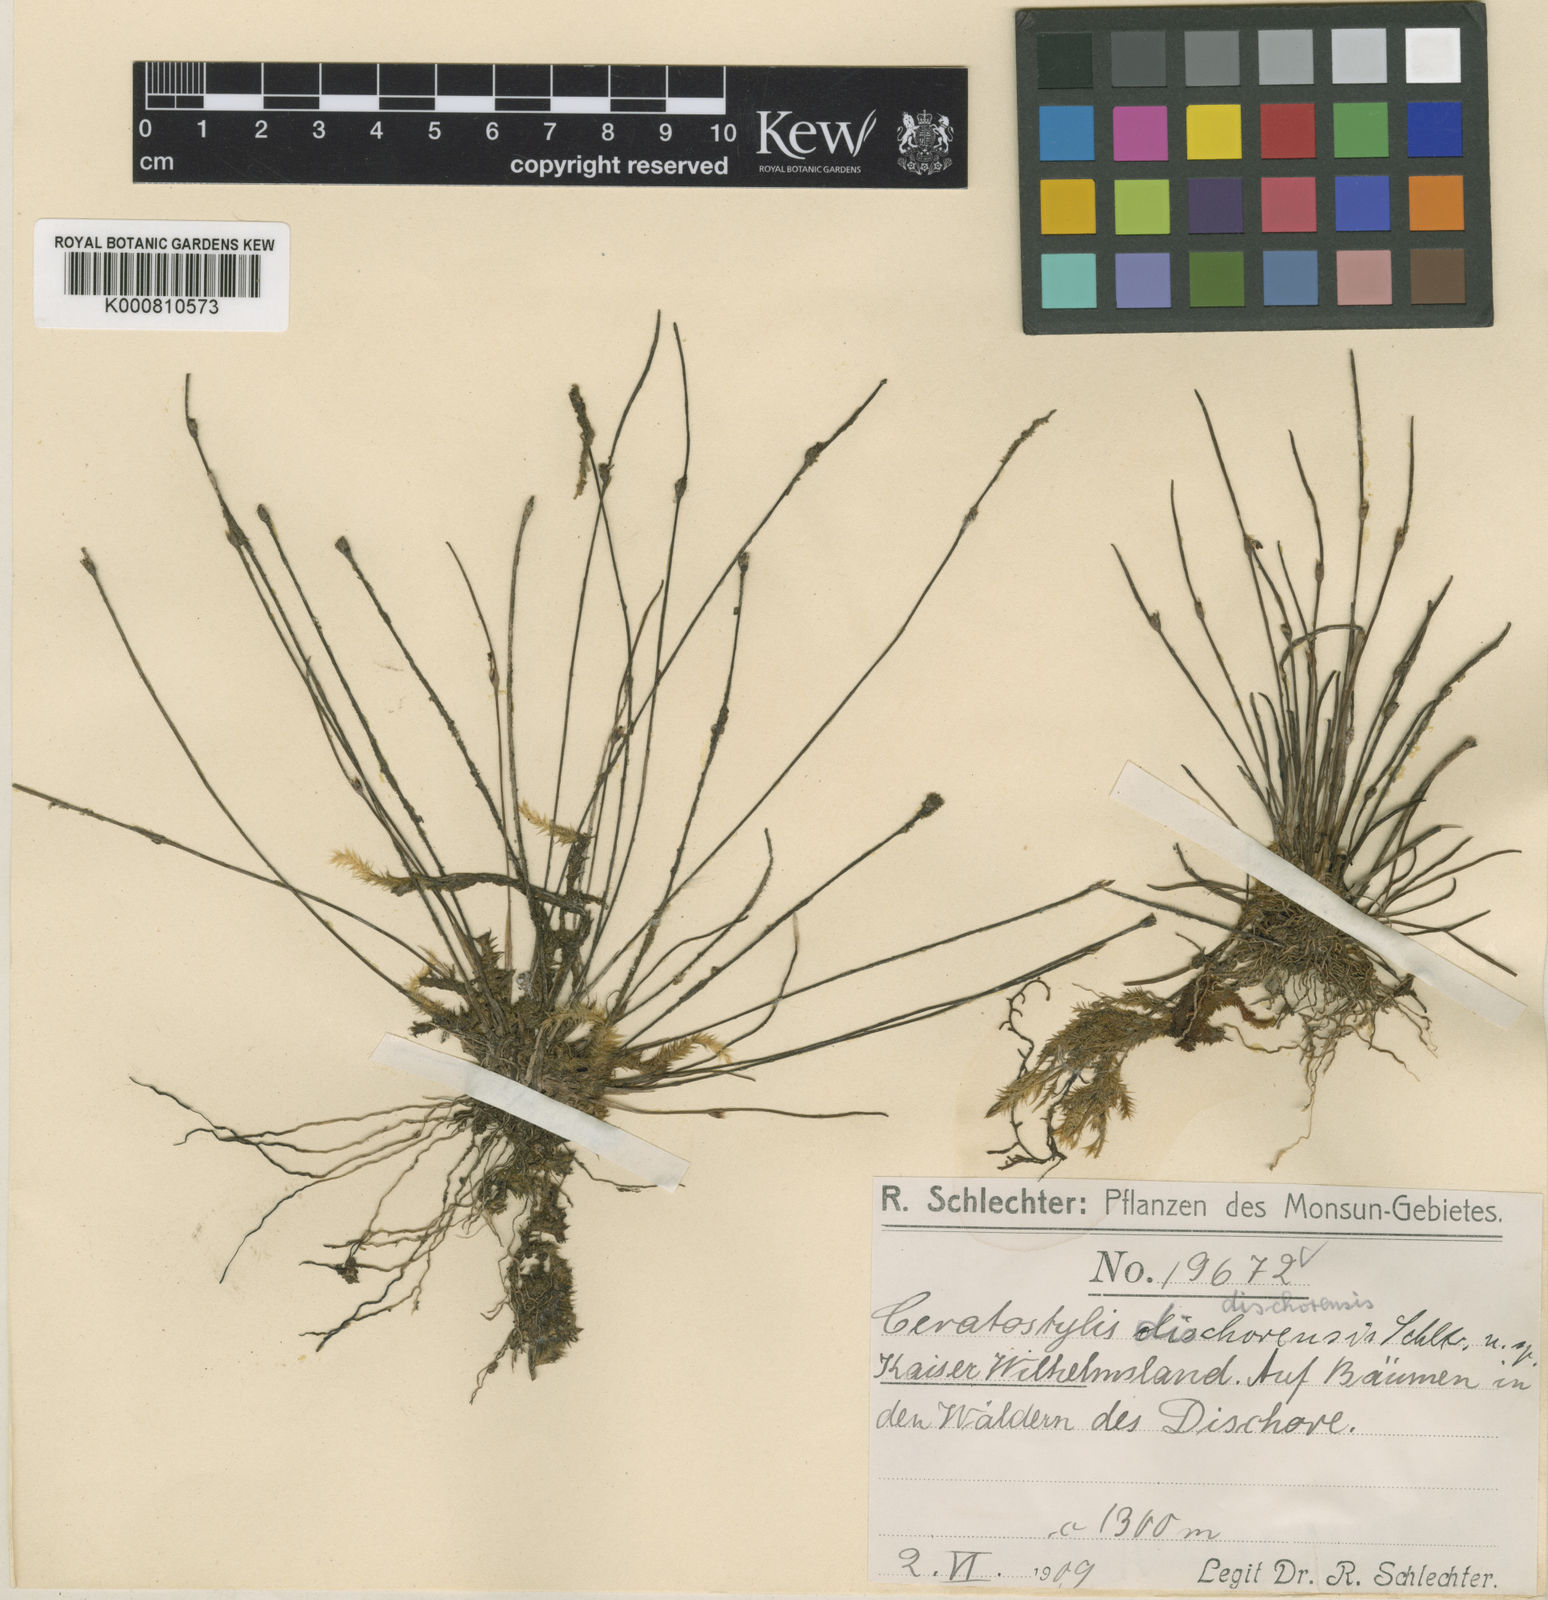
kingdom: Plantae
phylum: Tracheophyta
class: Liliopsida
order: Asparagales
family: Orchidaceae
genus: Ceratostylis
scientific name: Ceratostylis dischorensis
